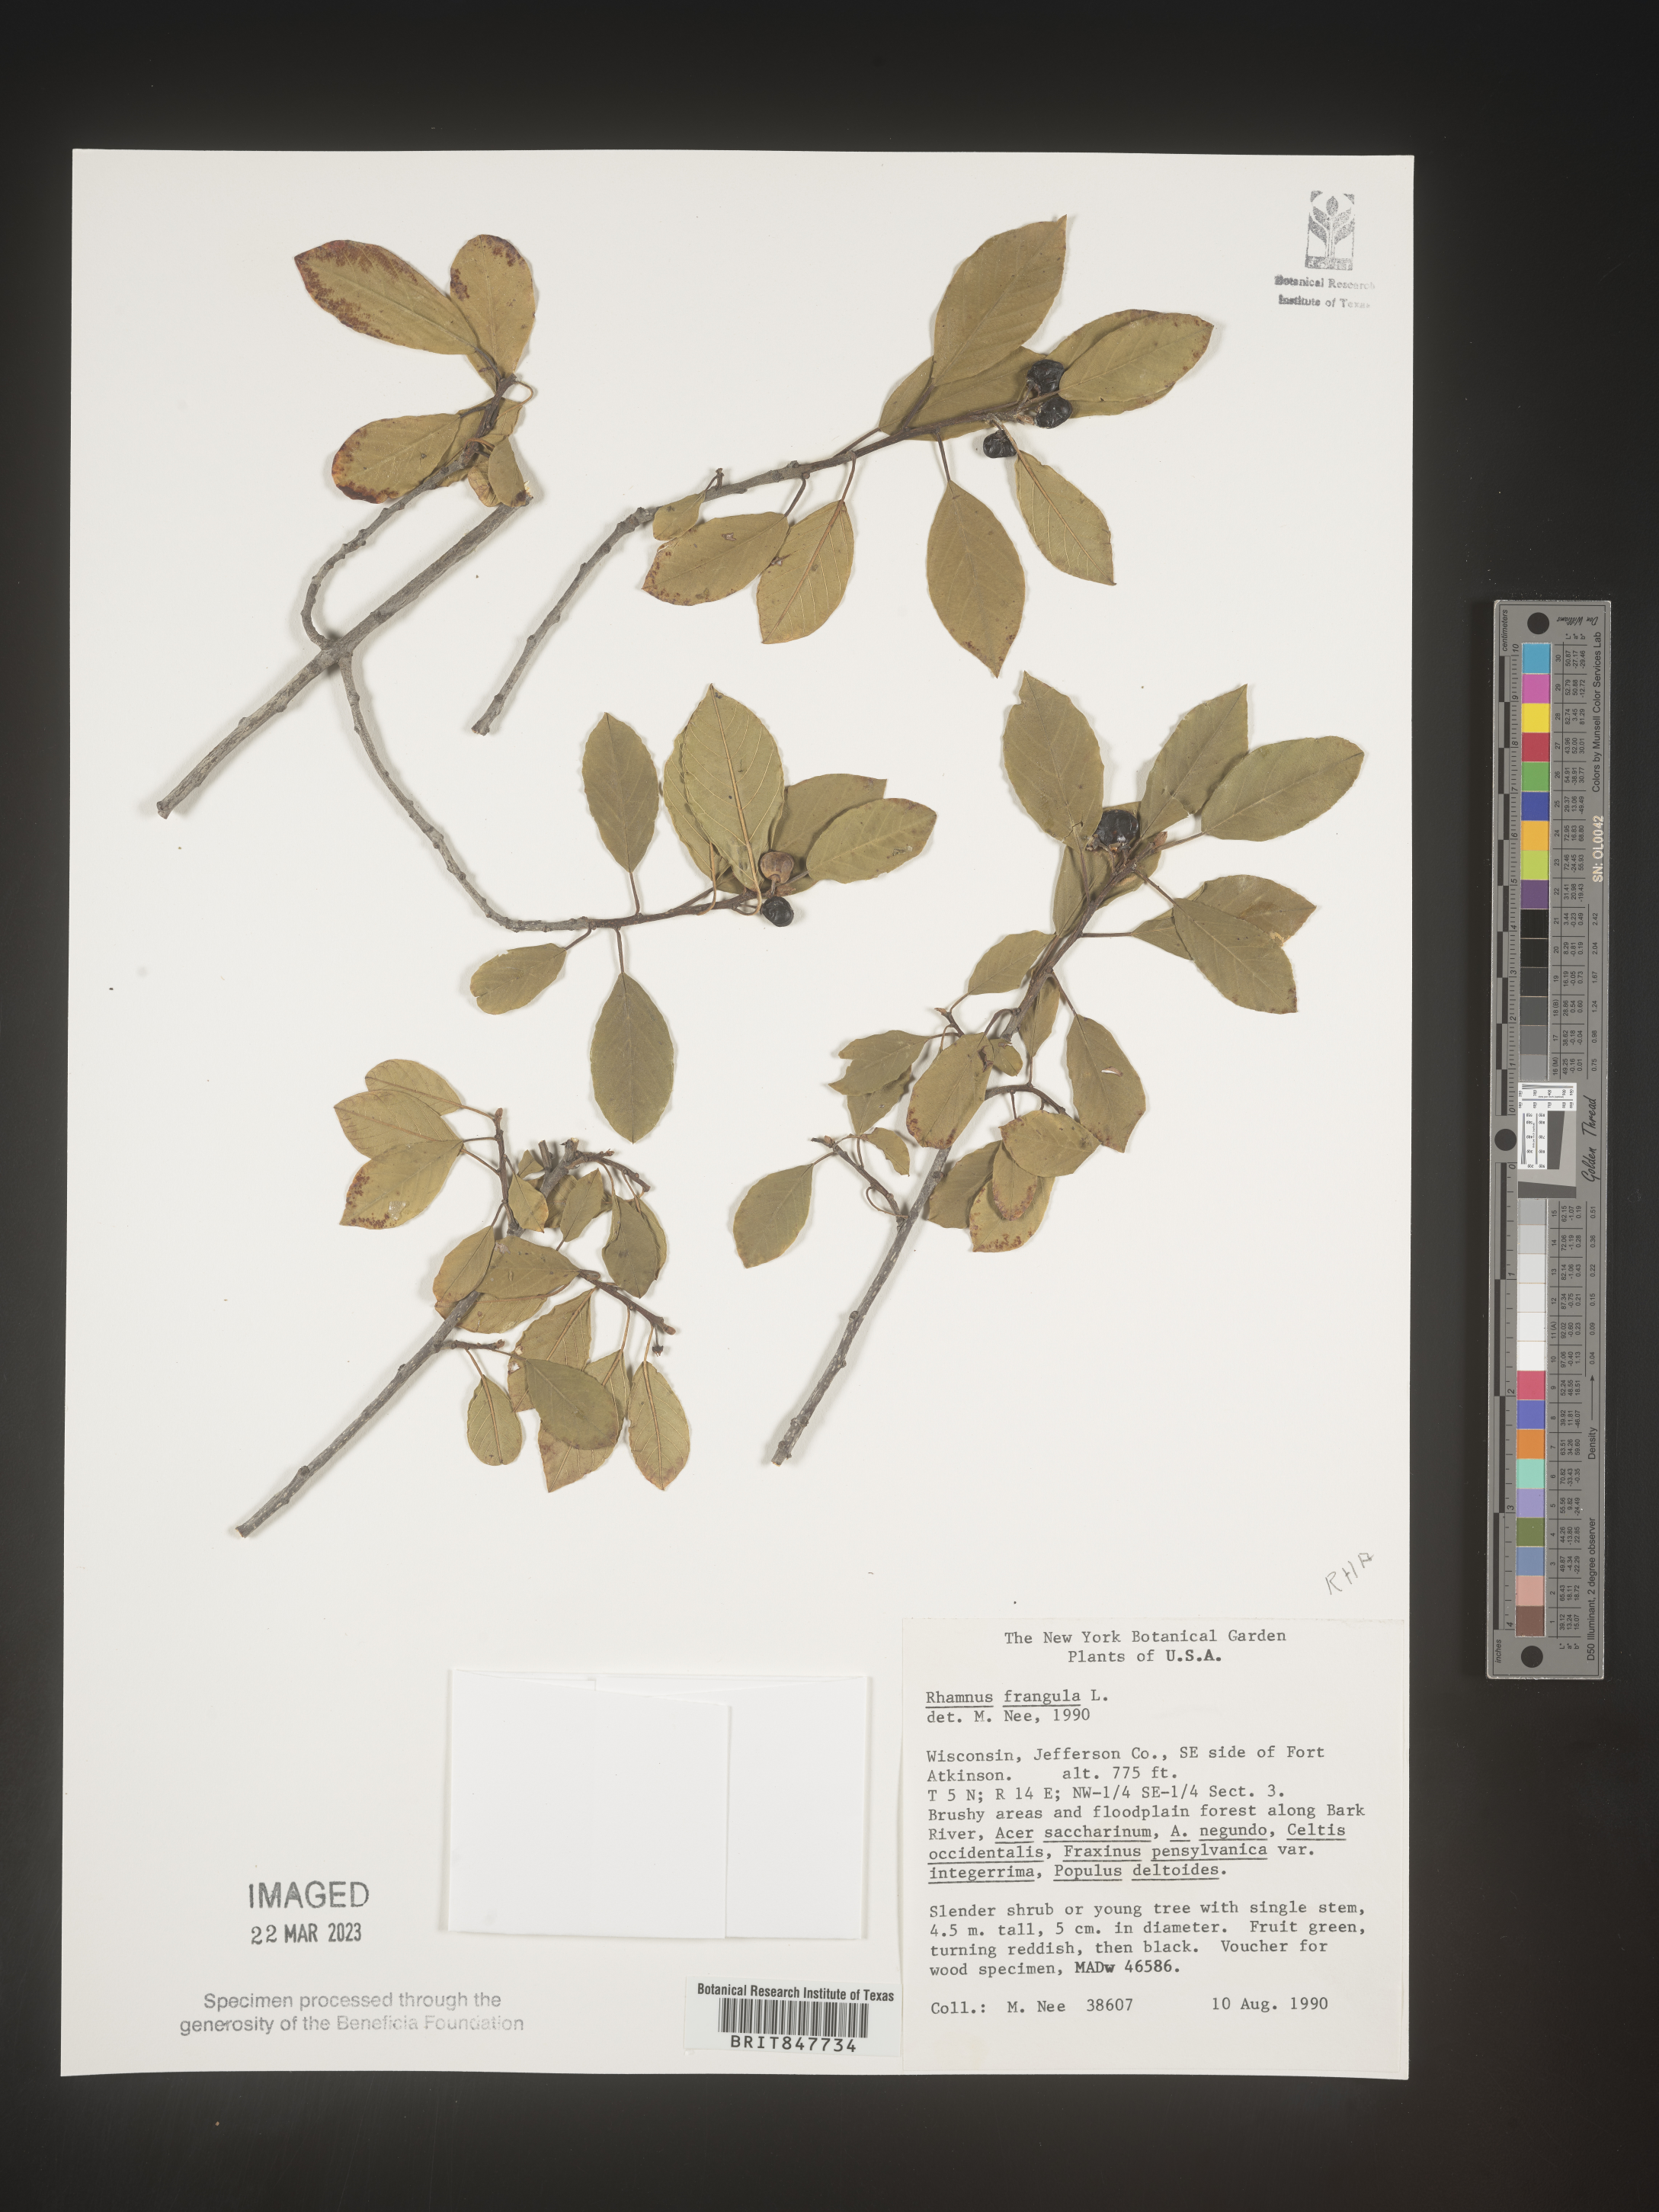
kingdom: Plantae
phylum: Tracheophyta
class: Magnoliopsida
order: Rosales
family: Rhamnaceae
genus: Frangula
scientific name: Frangula alnus
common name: Alder buckthorn
